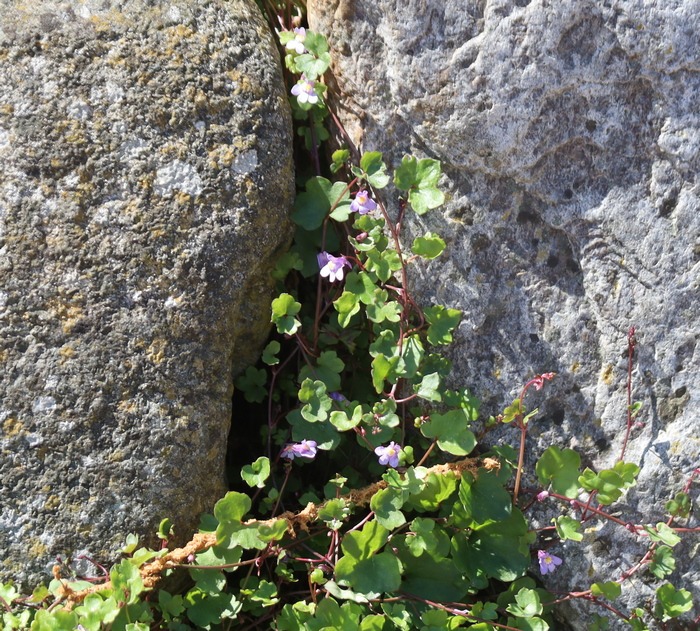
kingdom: Plantae
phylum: Tracheophyta
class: Magnoliopsida
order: Lamiales
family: Plantaginaceae
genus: Cymbalaria
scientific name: Cymbalaria muralis
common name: Vedbend-torskemund
